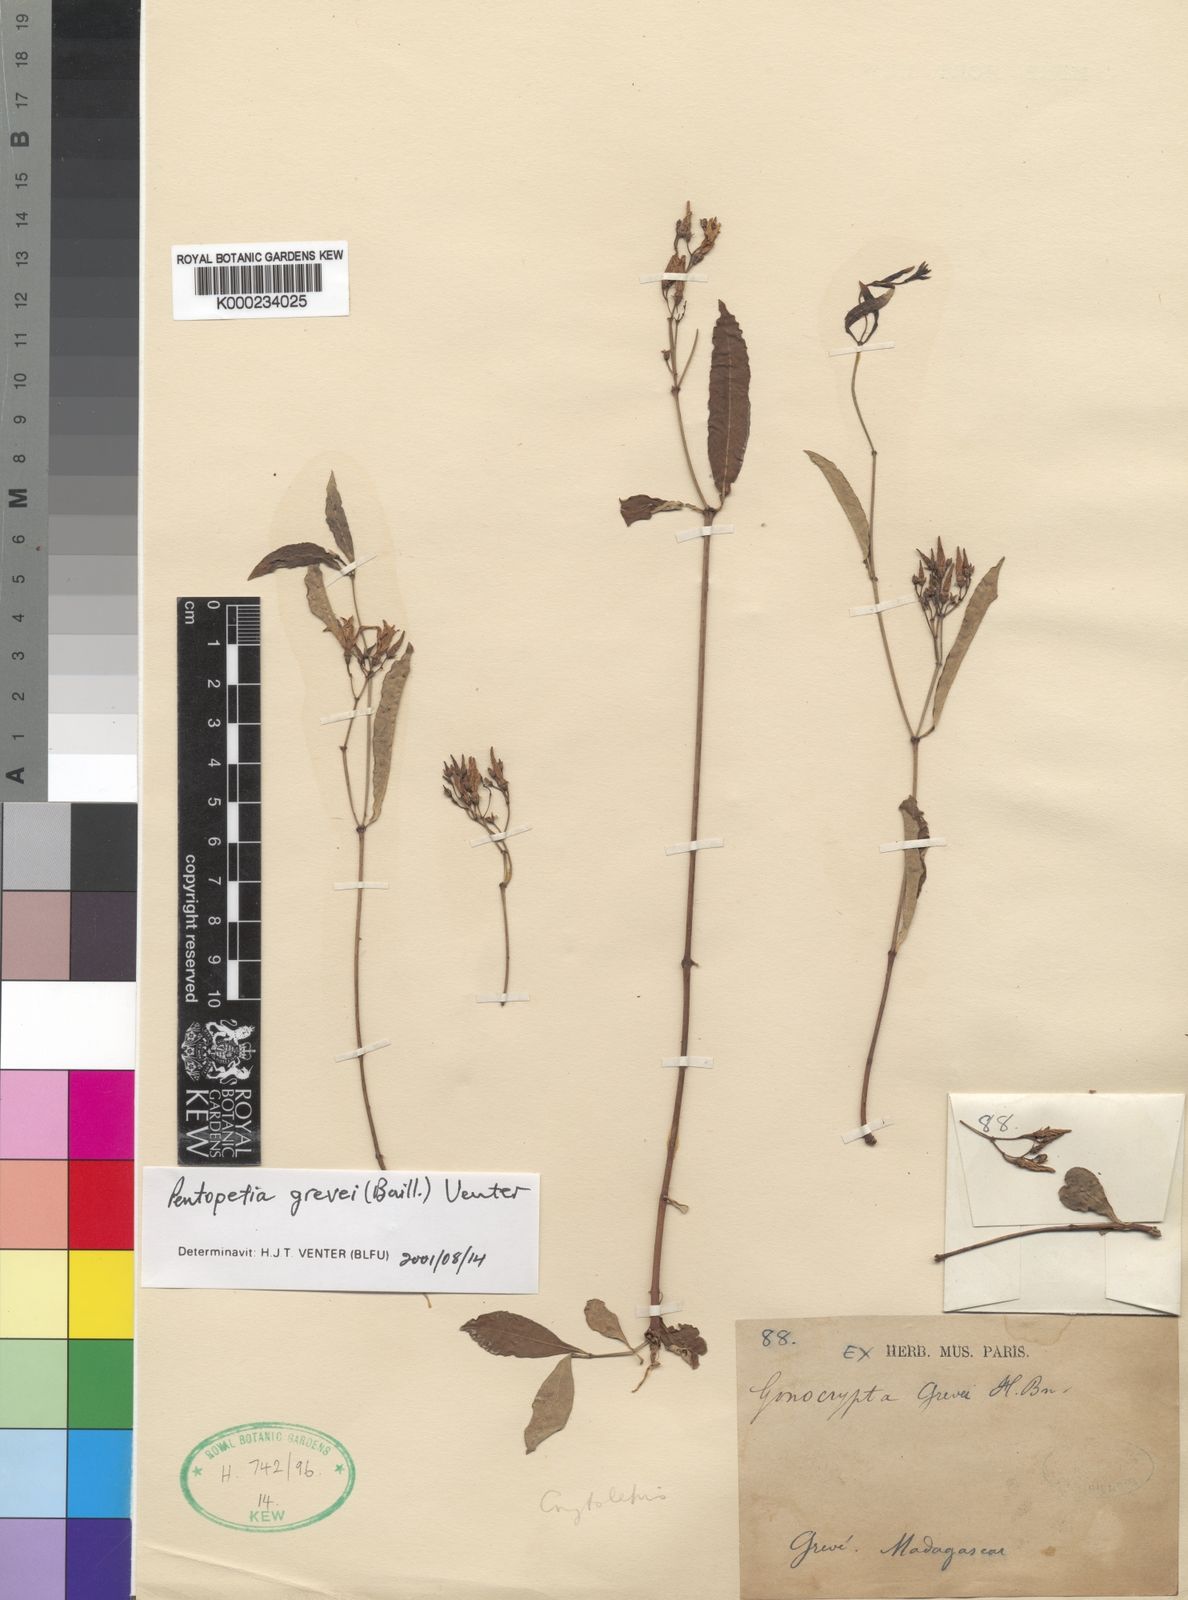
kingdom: Plantae
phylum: Tracheophyta
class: Magnoliopsida
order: Gentianales
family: Apocynaceae
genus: Pentopetia
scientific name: Pentopetia grevei
